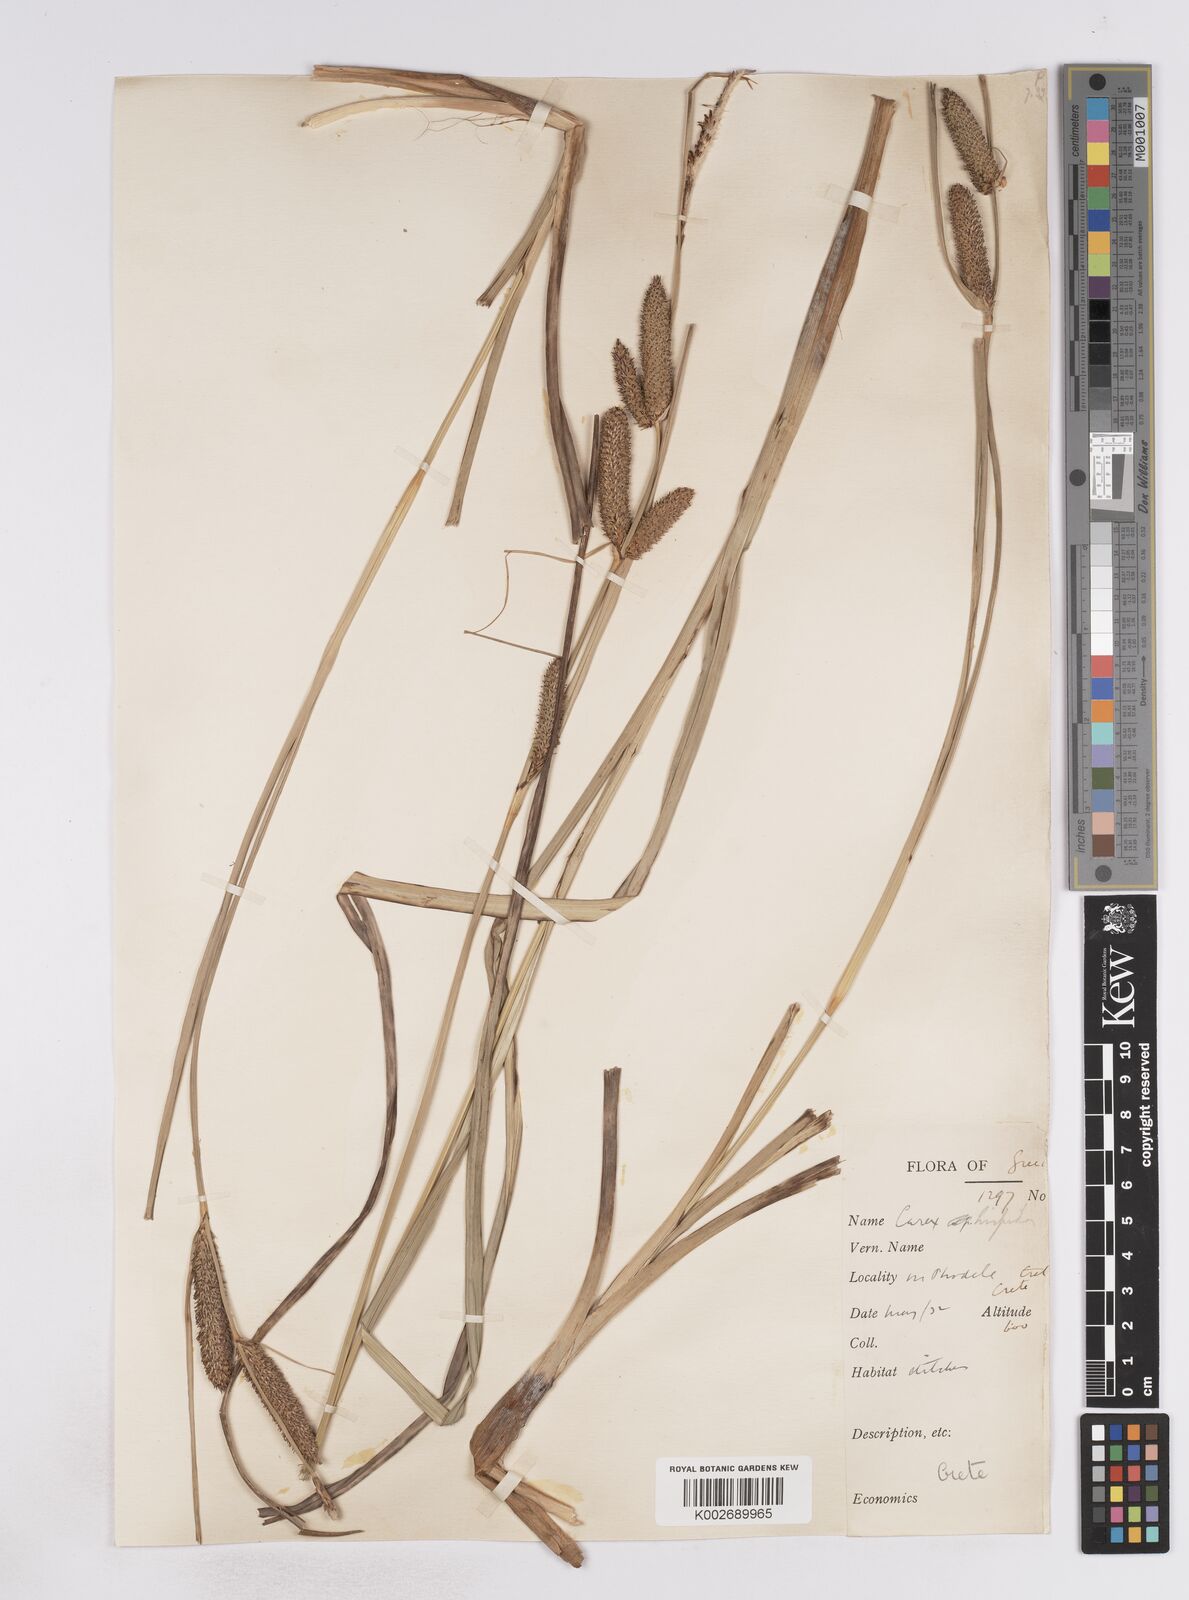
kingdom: Plantae
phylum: Tracheophyta
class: Liliopsida
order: Poales
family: Cyperaceae
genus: Carex
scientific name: Carex hispida
